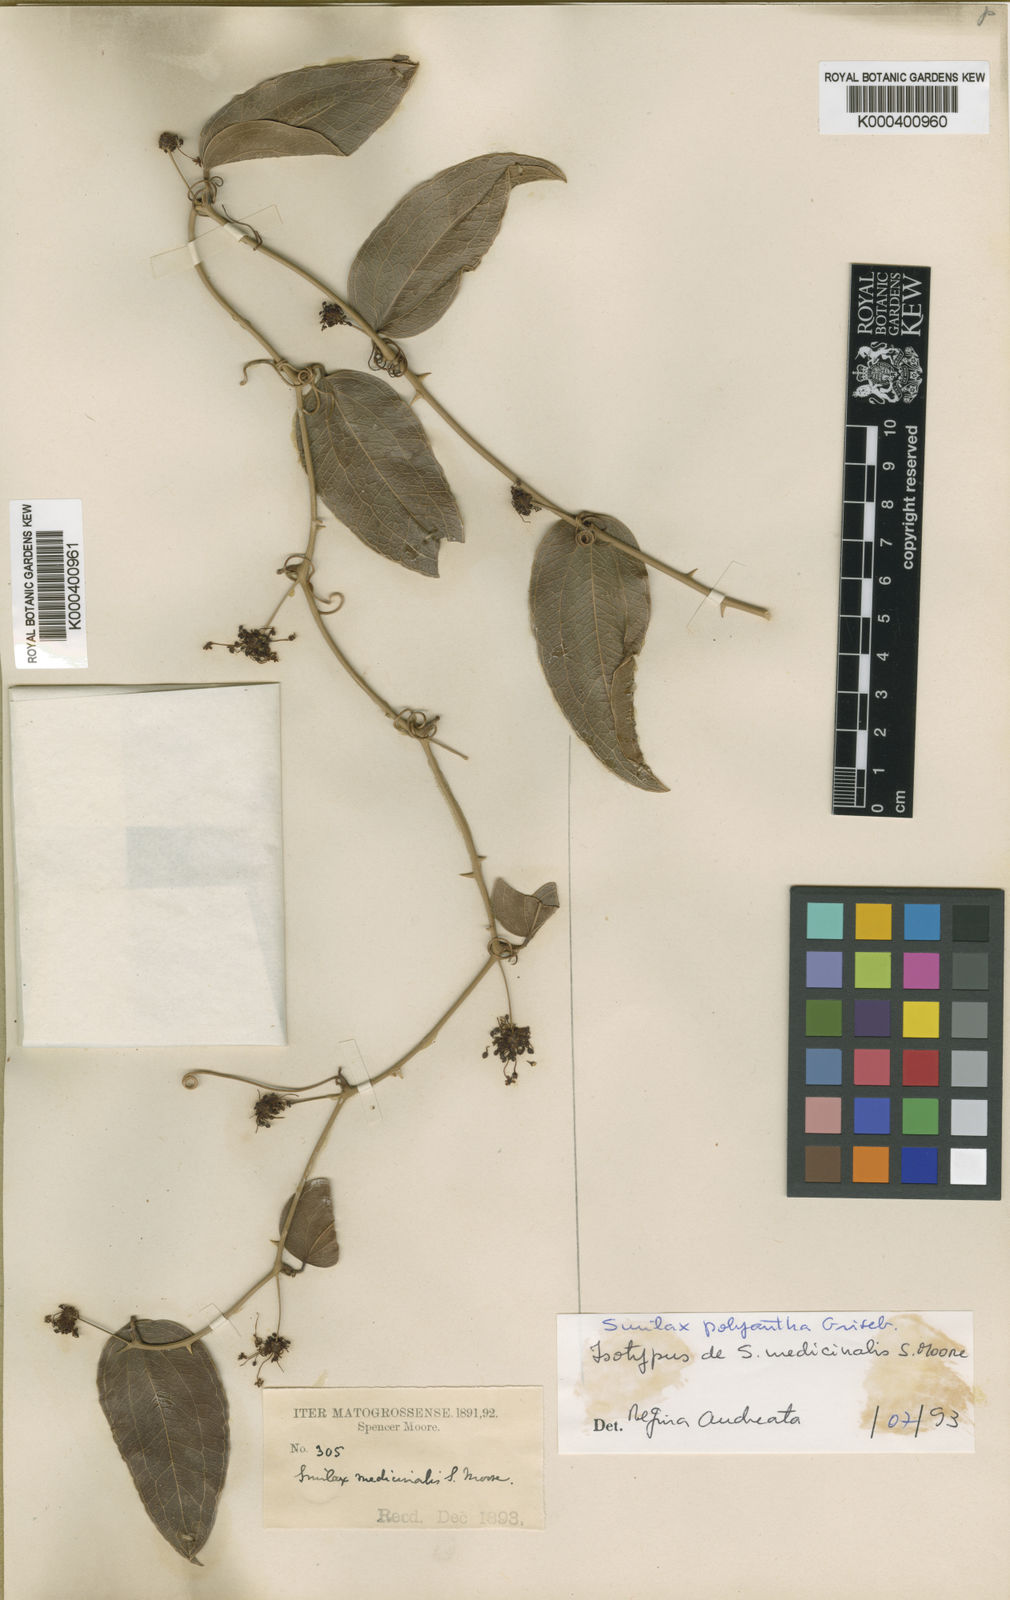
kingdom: Plantae
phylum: Tracheophyta
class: Liliopsida
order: Liliales
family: Smilacaceae
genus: Smilax
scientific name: Smilax polyantha
